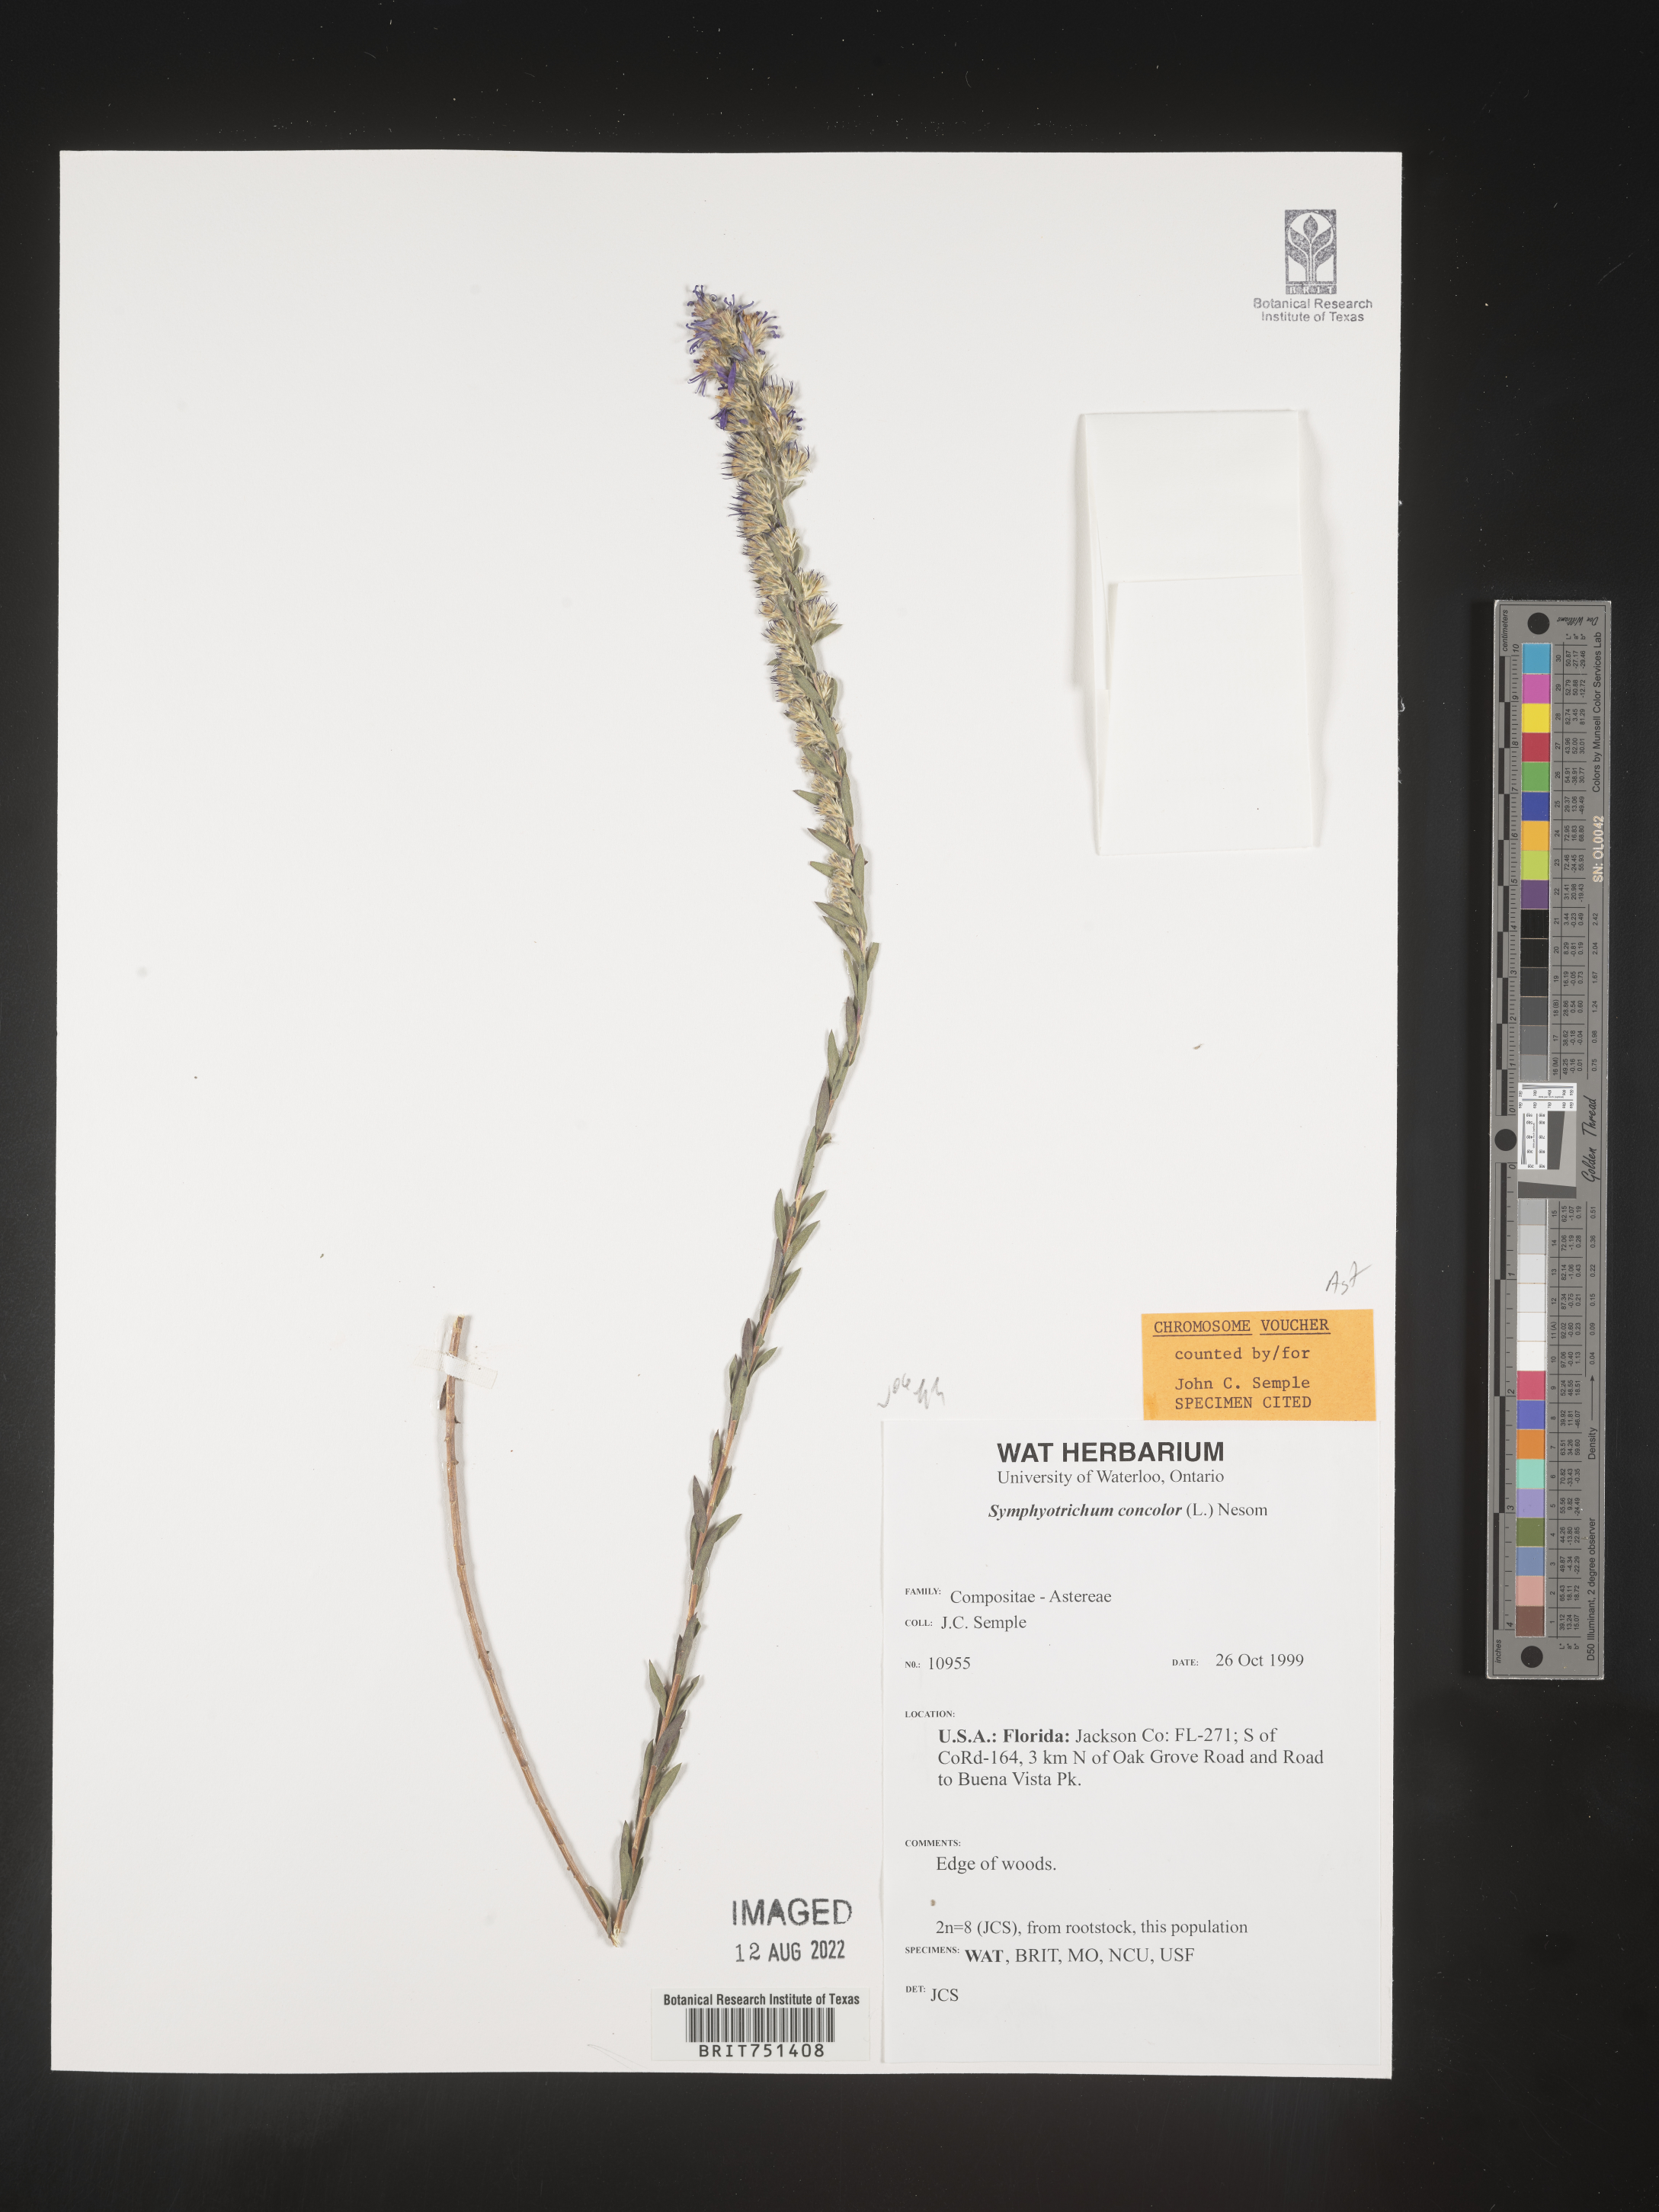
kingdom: Plantae
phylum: Tracheophyta
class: Magnoliopsida
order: Asterales
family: Asteraceae
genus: Symphyotrichum
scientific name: Symphyotrichum concolor
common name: Eastern silver aster
